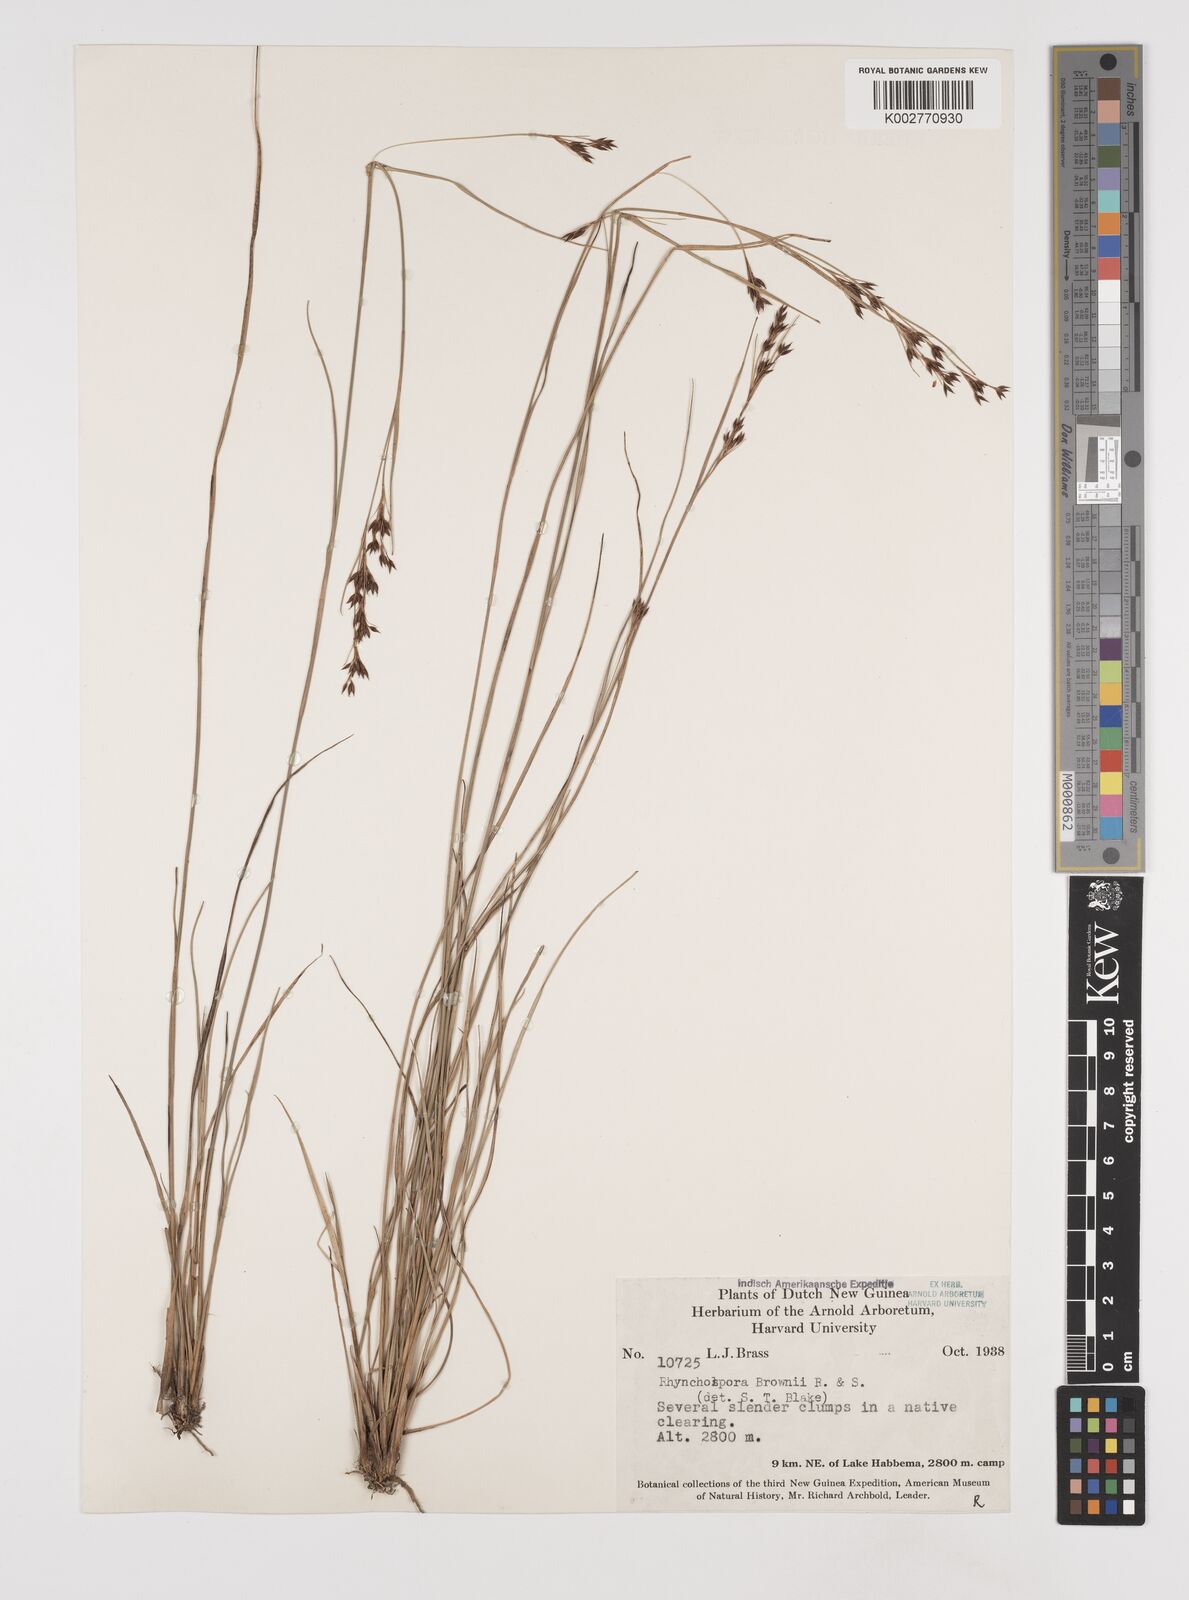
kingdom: Plantae
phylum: Tracheophyta
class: Liliopsida
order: Poales
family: Cyperaceae
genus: Rhynchospora
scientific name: Rhynchospora rugosa
